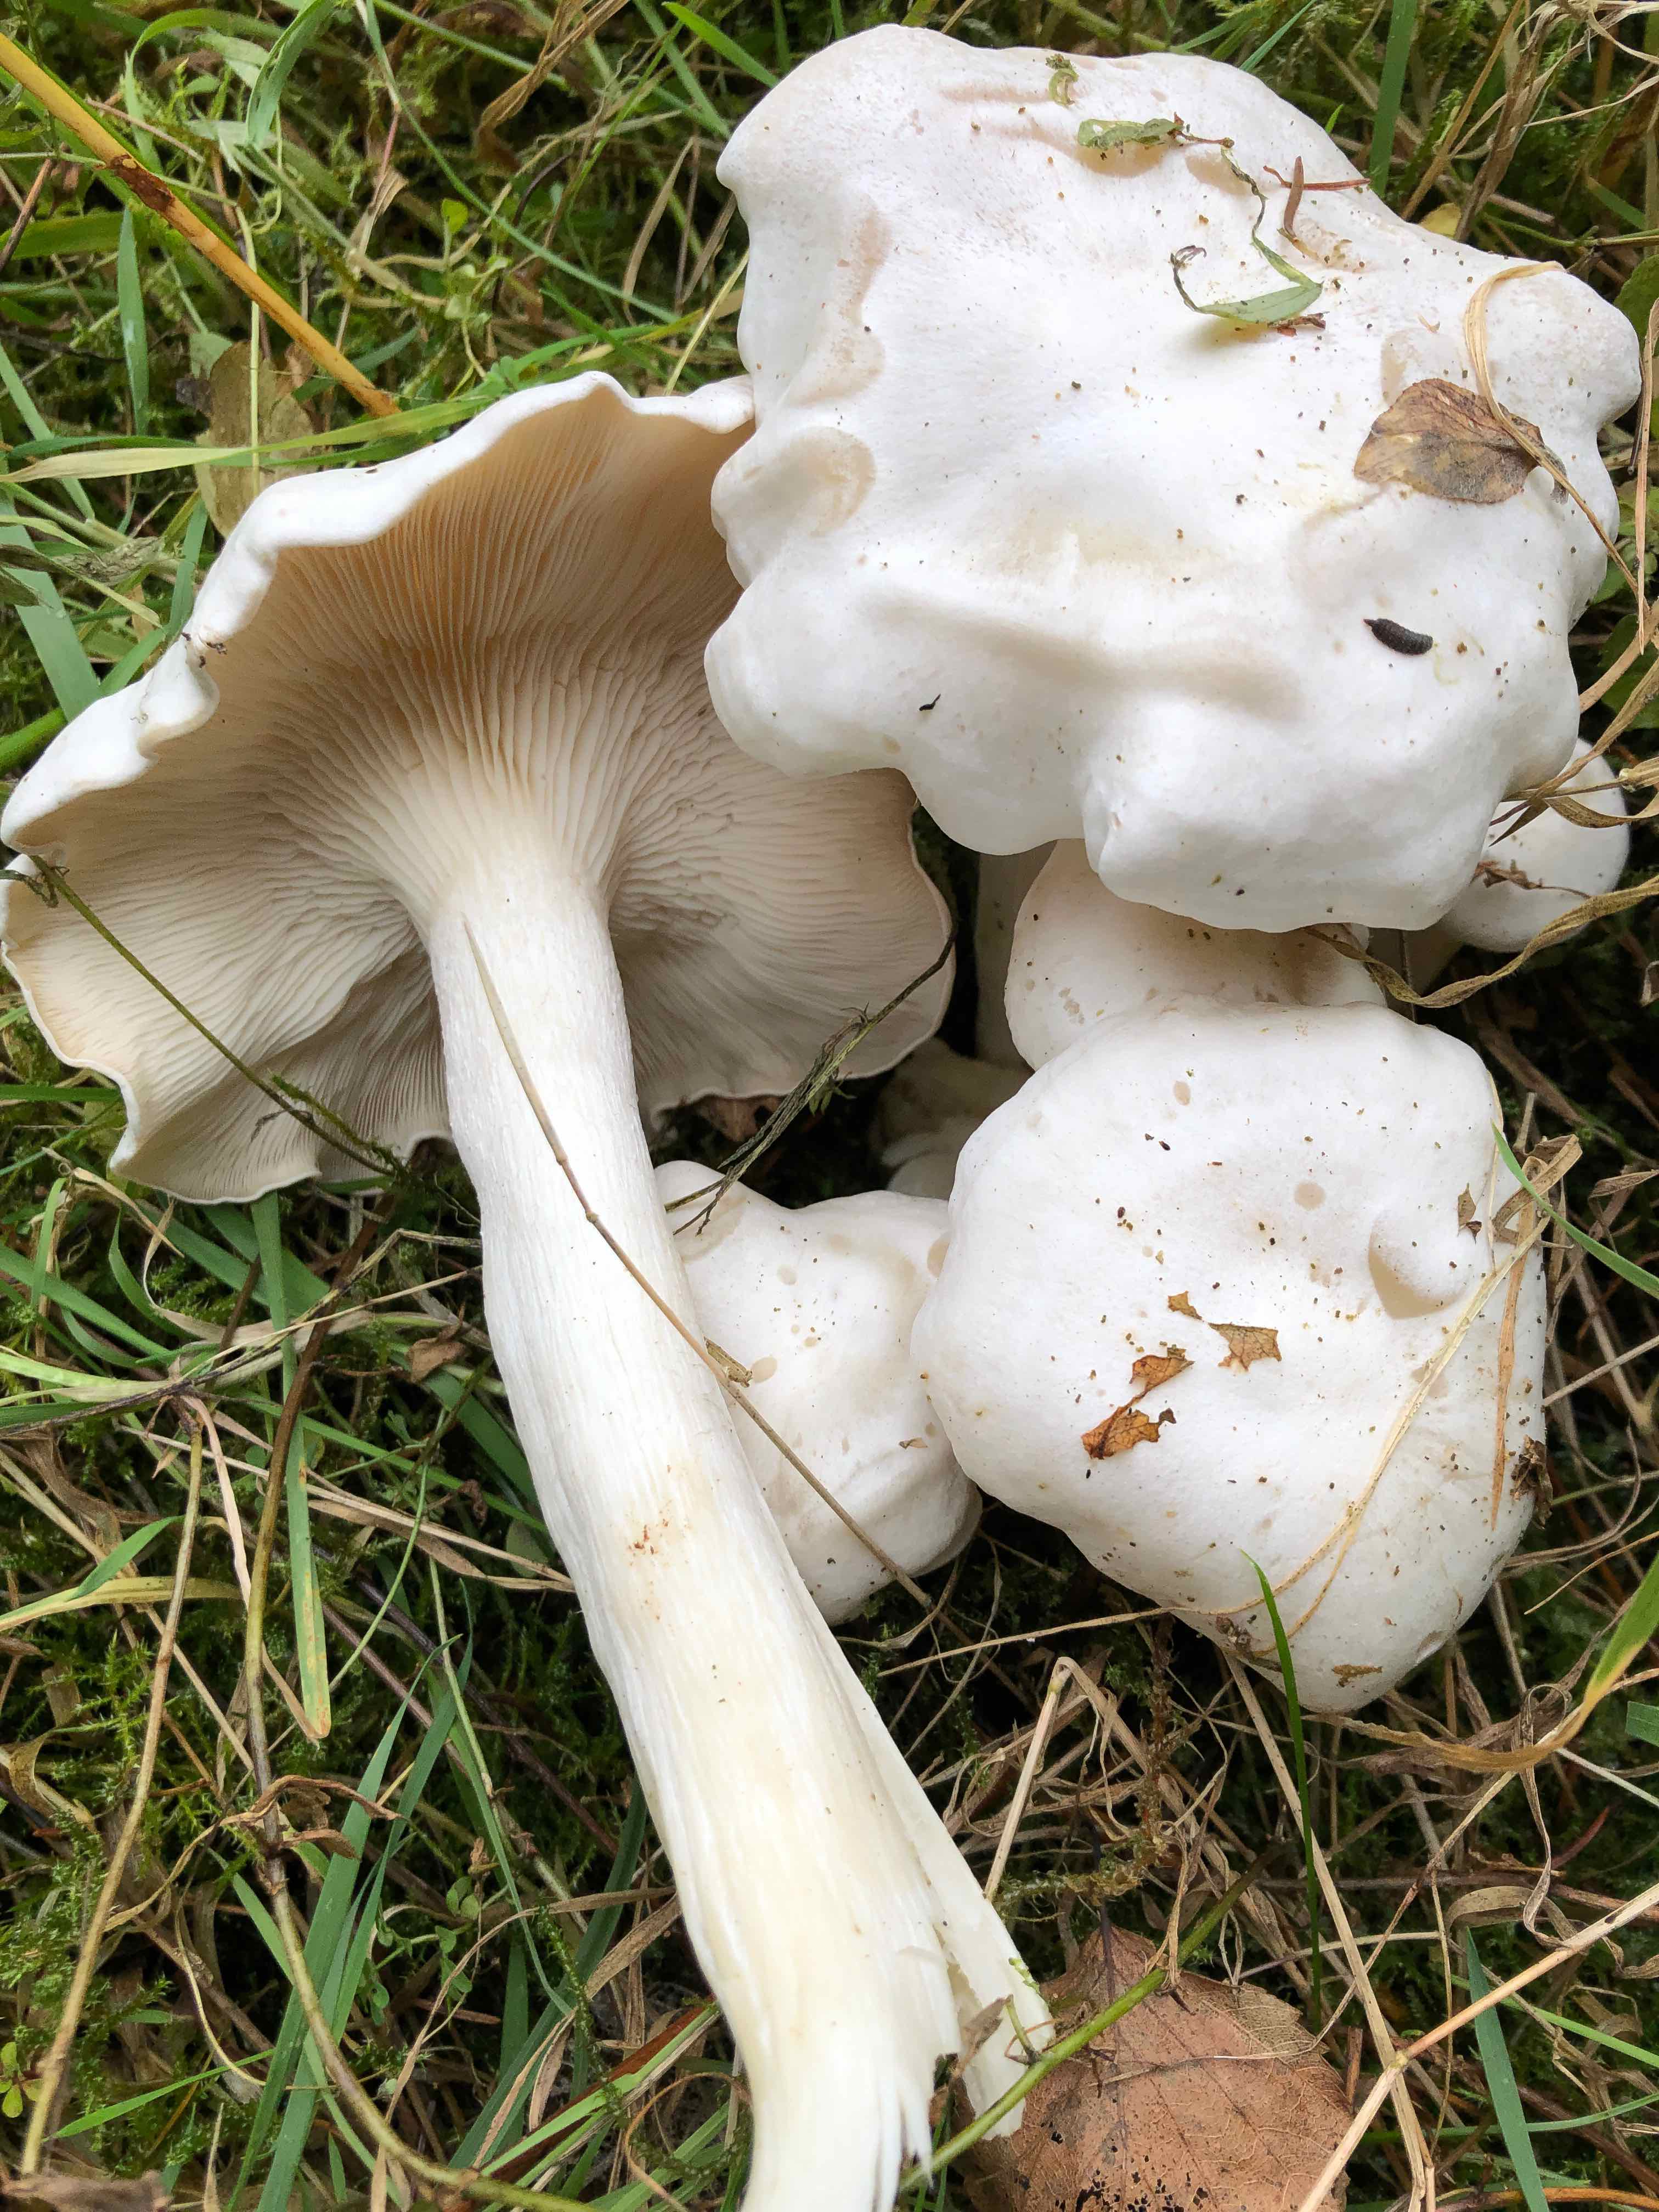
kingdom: Fungi
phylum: Basidiomycota
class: Agaricomycetes
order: Agaricales
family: Tricholomataceae
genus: Leucocybe
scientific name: Leucocybe connata
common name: knippe-tragthat
